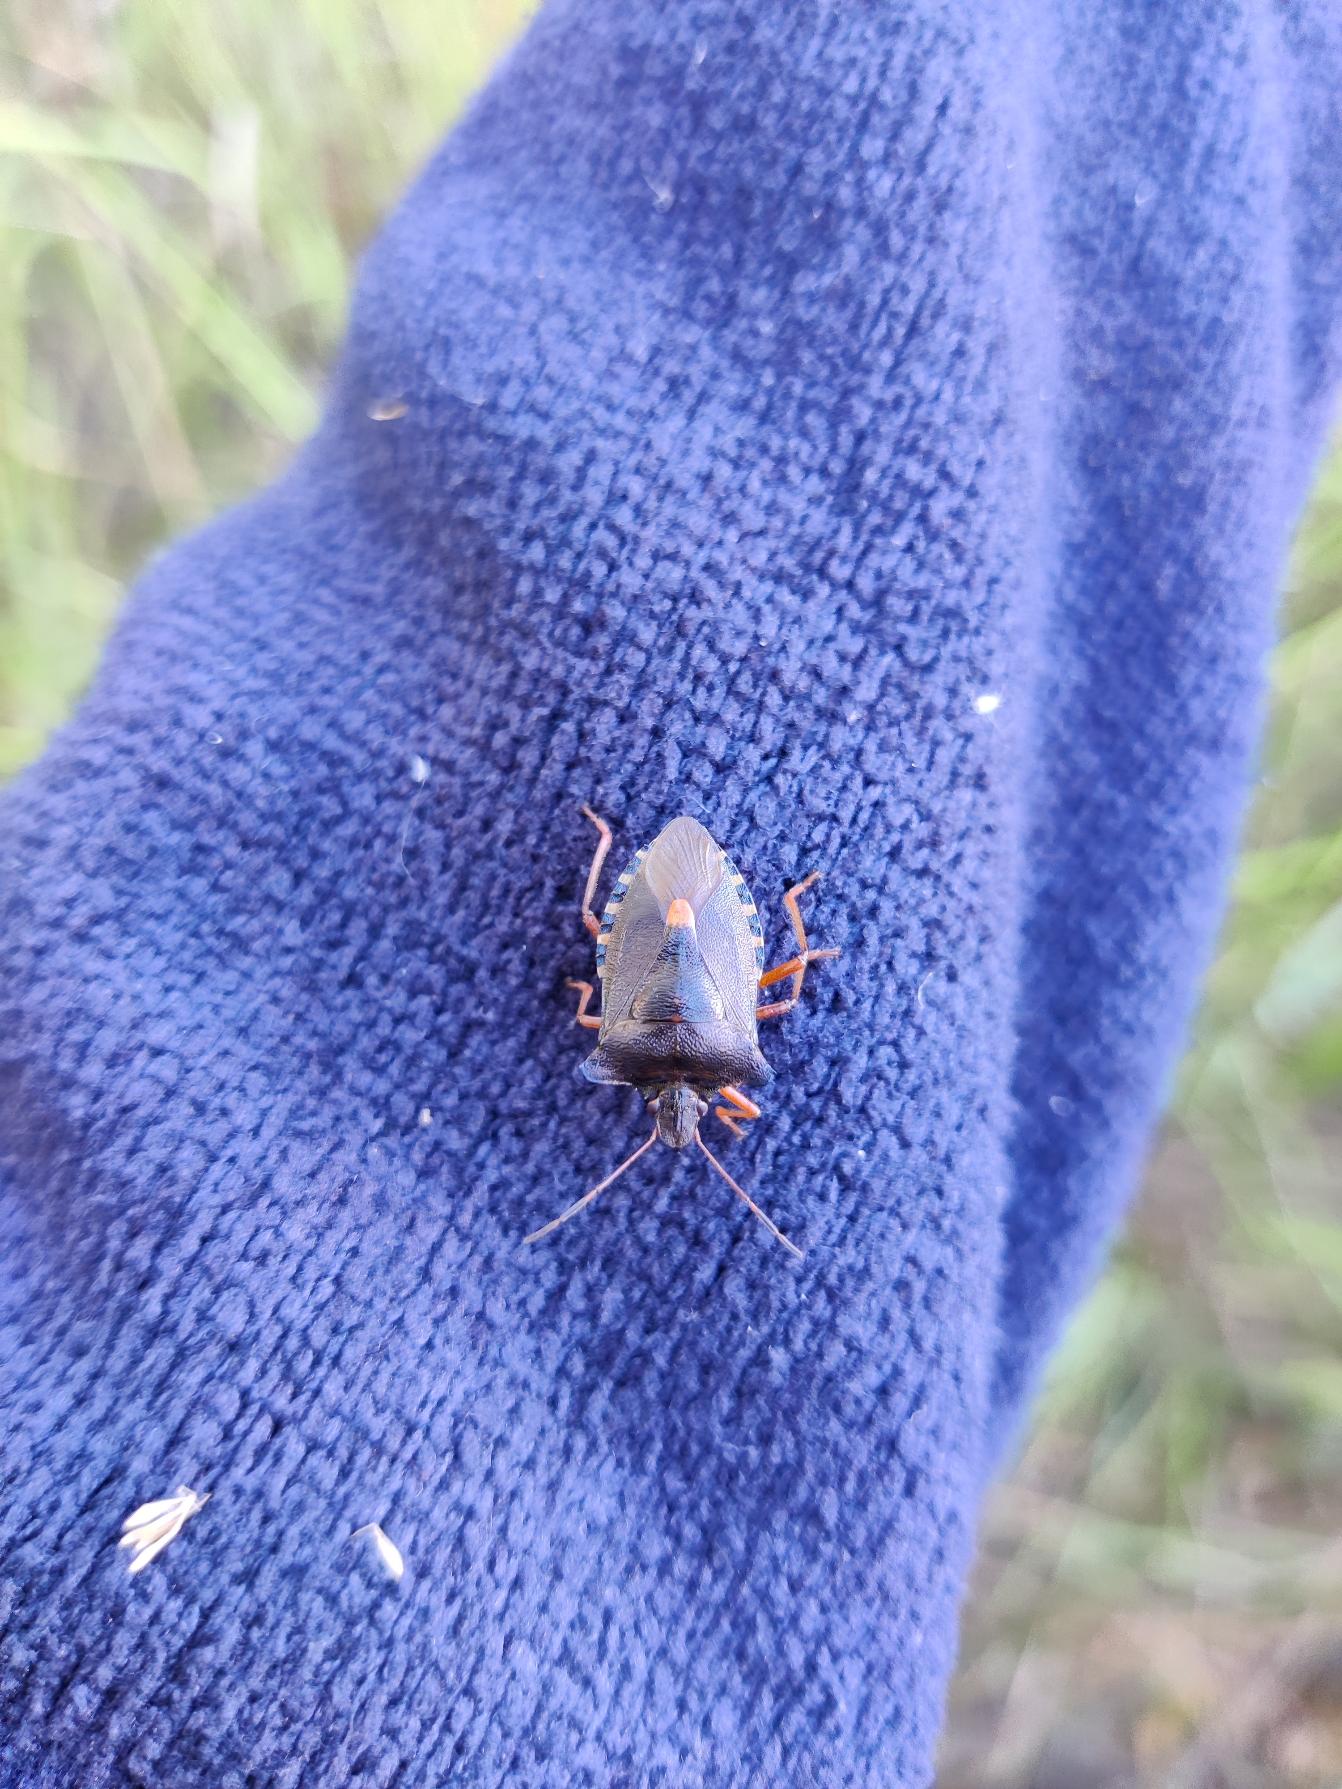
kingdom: Animalia
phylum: Arthropoda
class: Insecta
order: Hemiptera
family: Pentatomidae
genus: Pentatoma
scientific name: Pentatoma rufipes
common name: Rødbenet bredtæge
